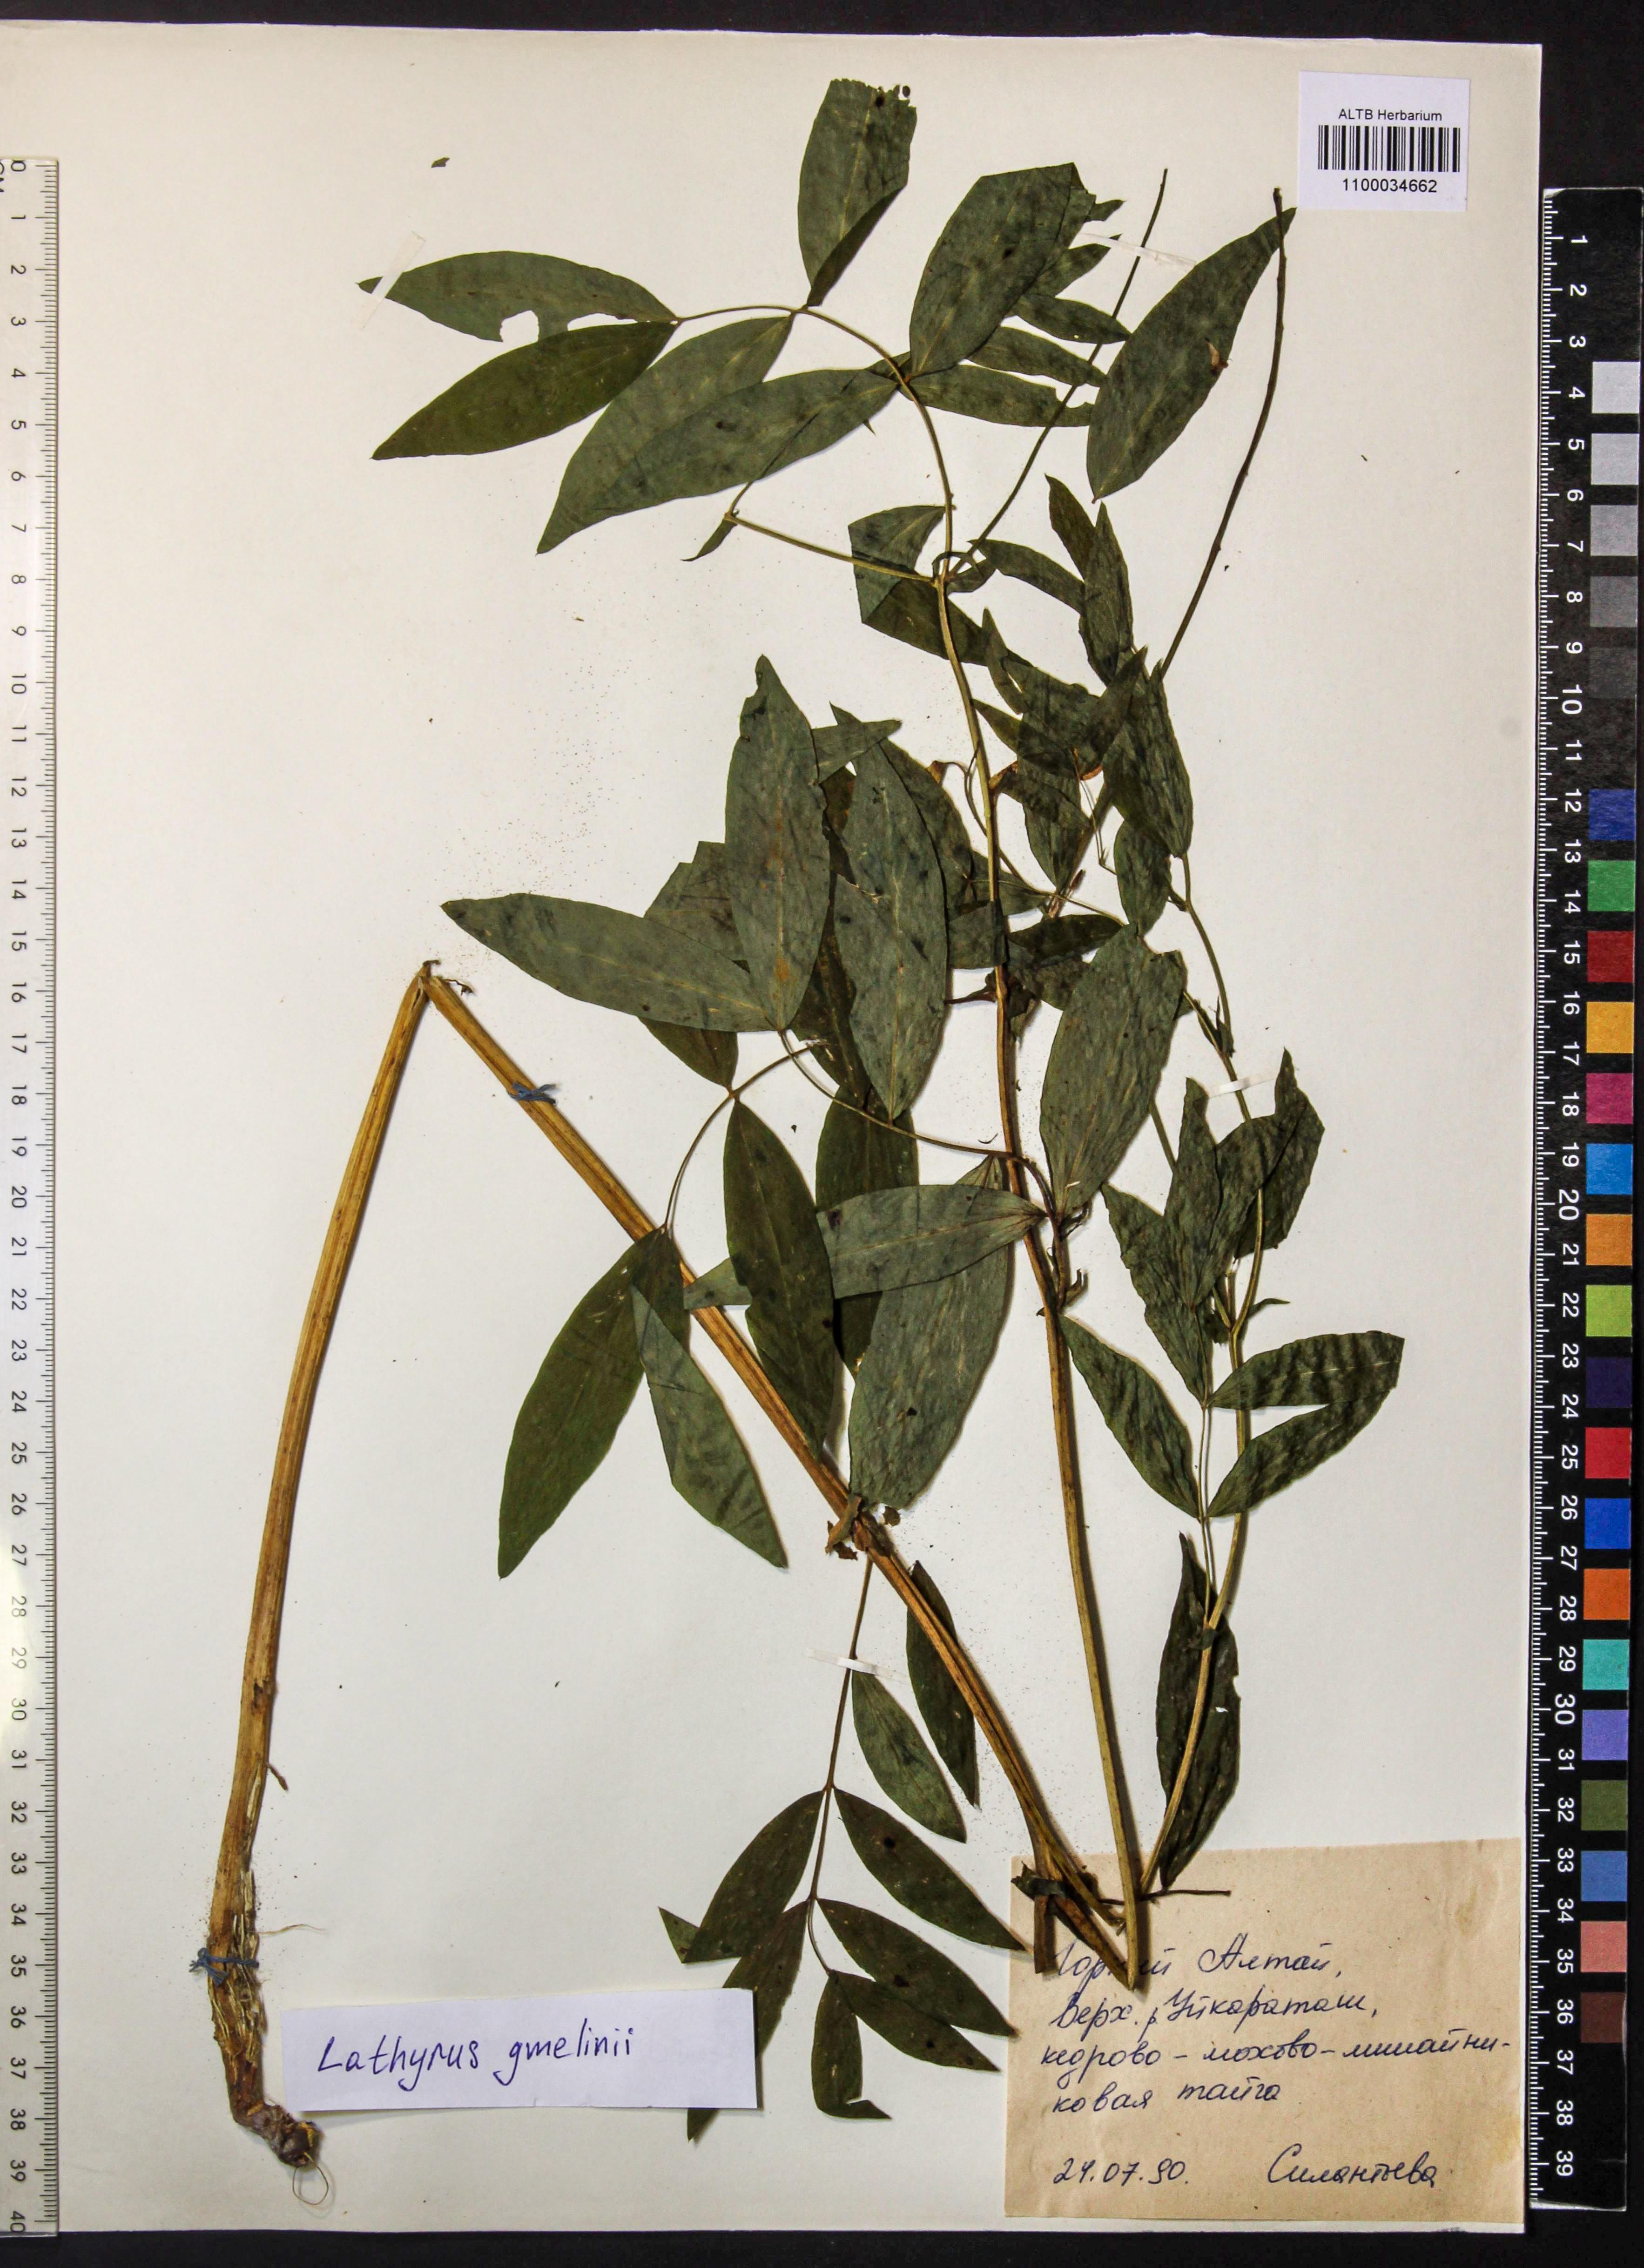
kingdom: Plantae
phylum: Tracheophyta
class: Magnoliopsida
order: Fabales
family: Fabaceae
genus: Lathyrus
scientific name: Lathyrus gmelinii
